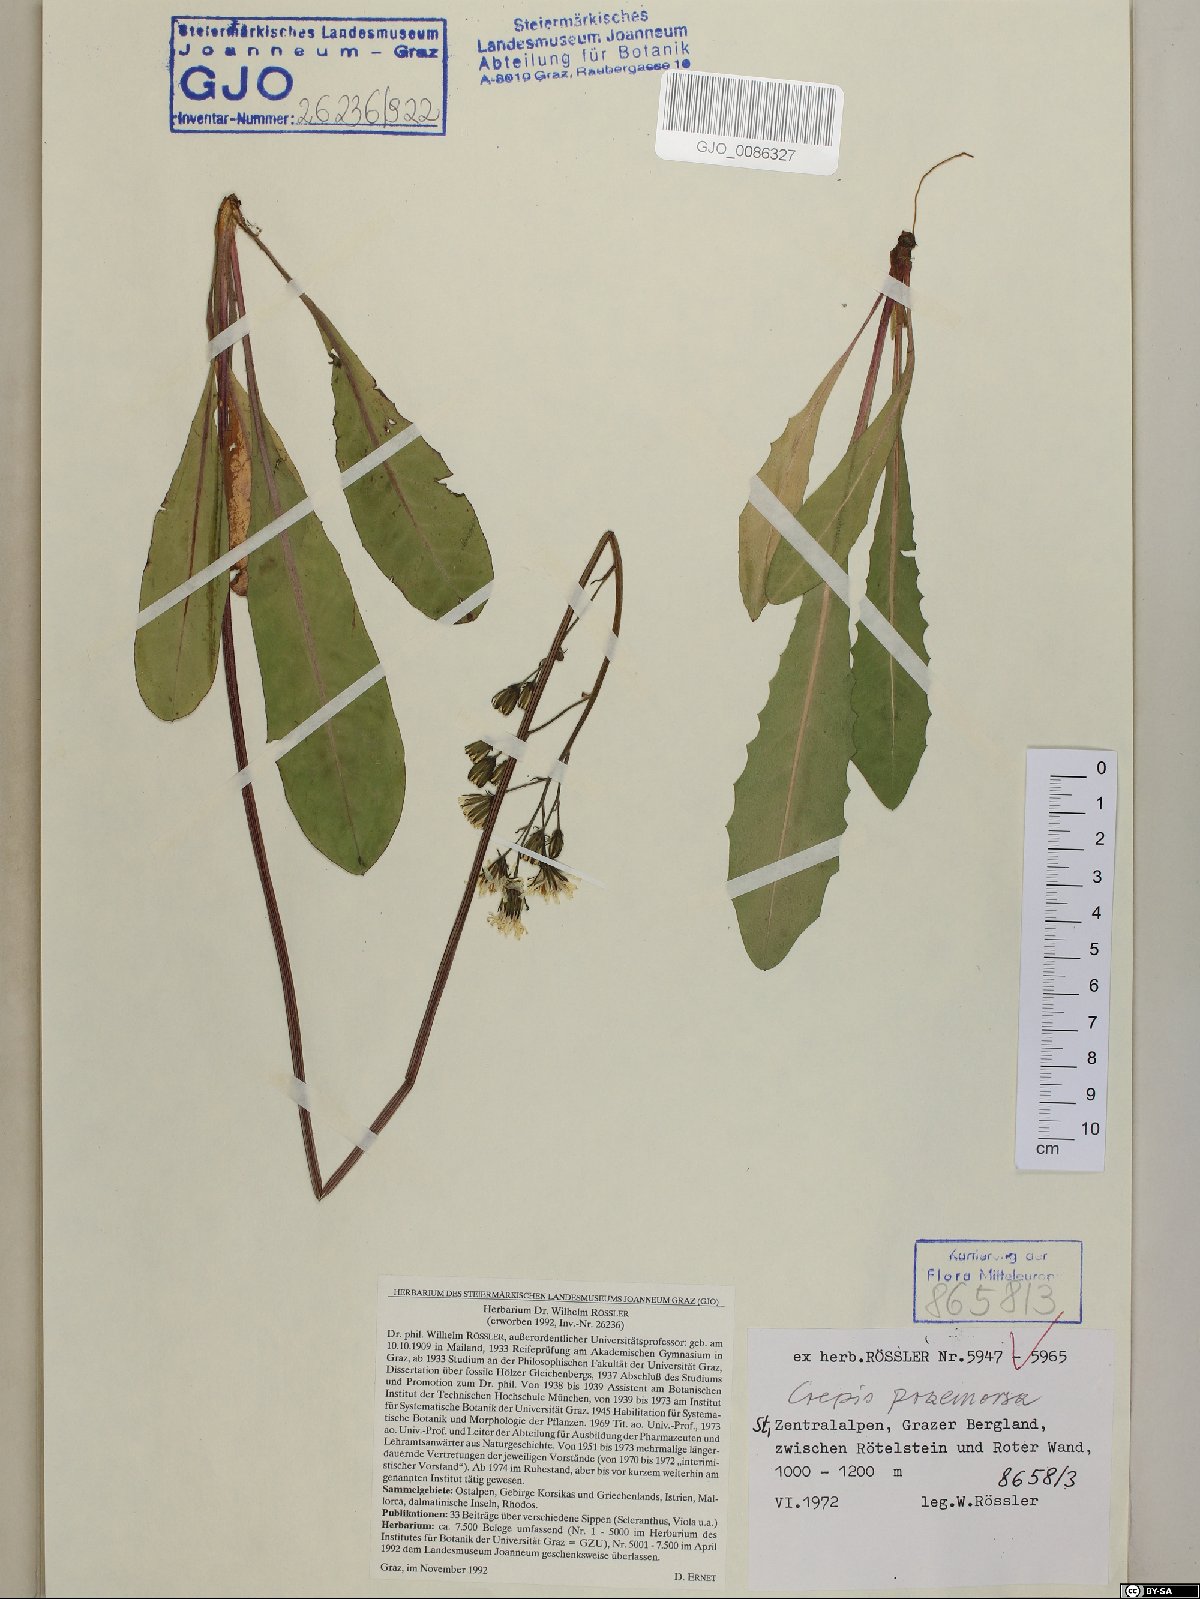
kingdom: Plantae
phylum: Tracheophyta
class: Magnoliopsida
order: Asterales
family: Asteraceae
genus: Crepis
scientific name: Crepis praemorsa
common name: Leafless hawk's-beard
